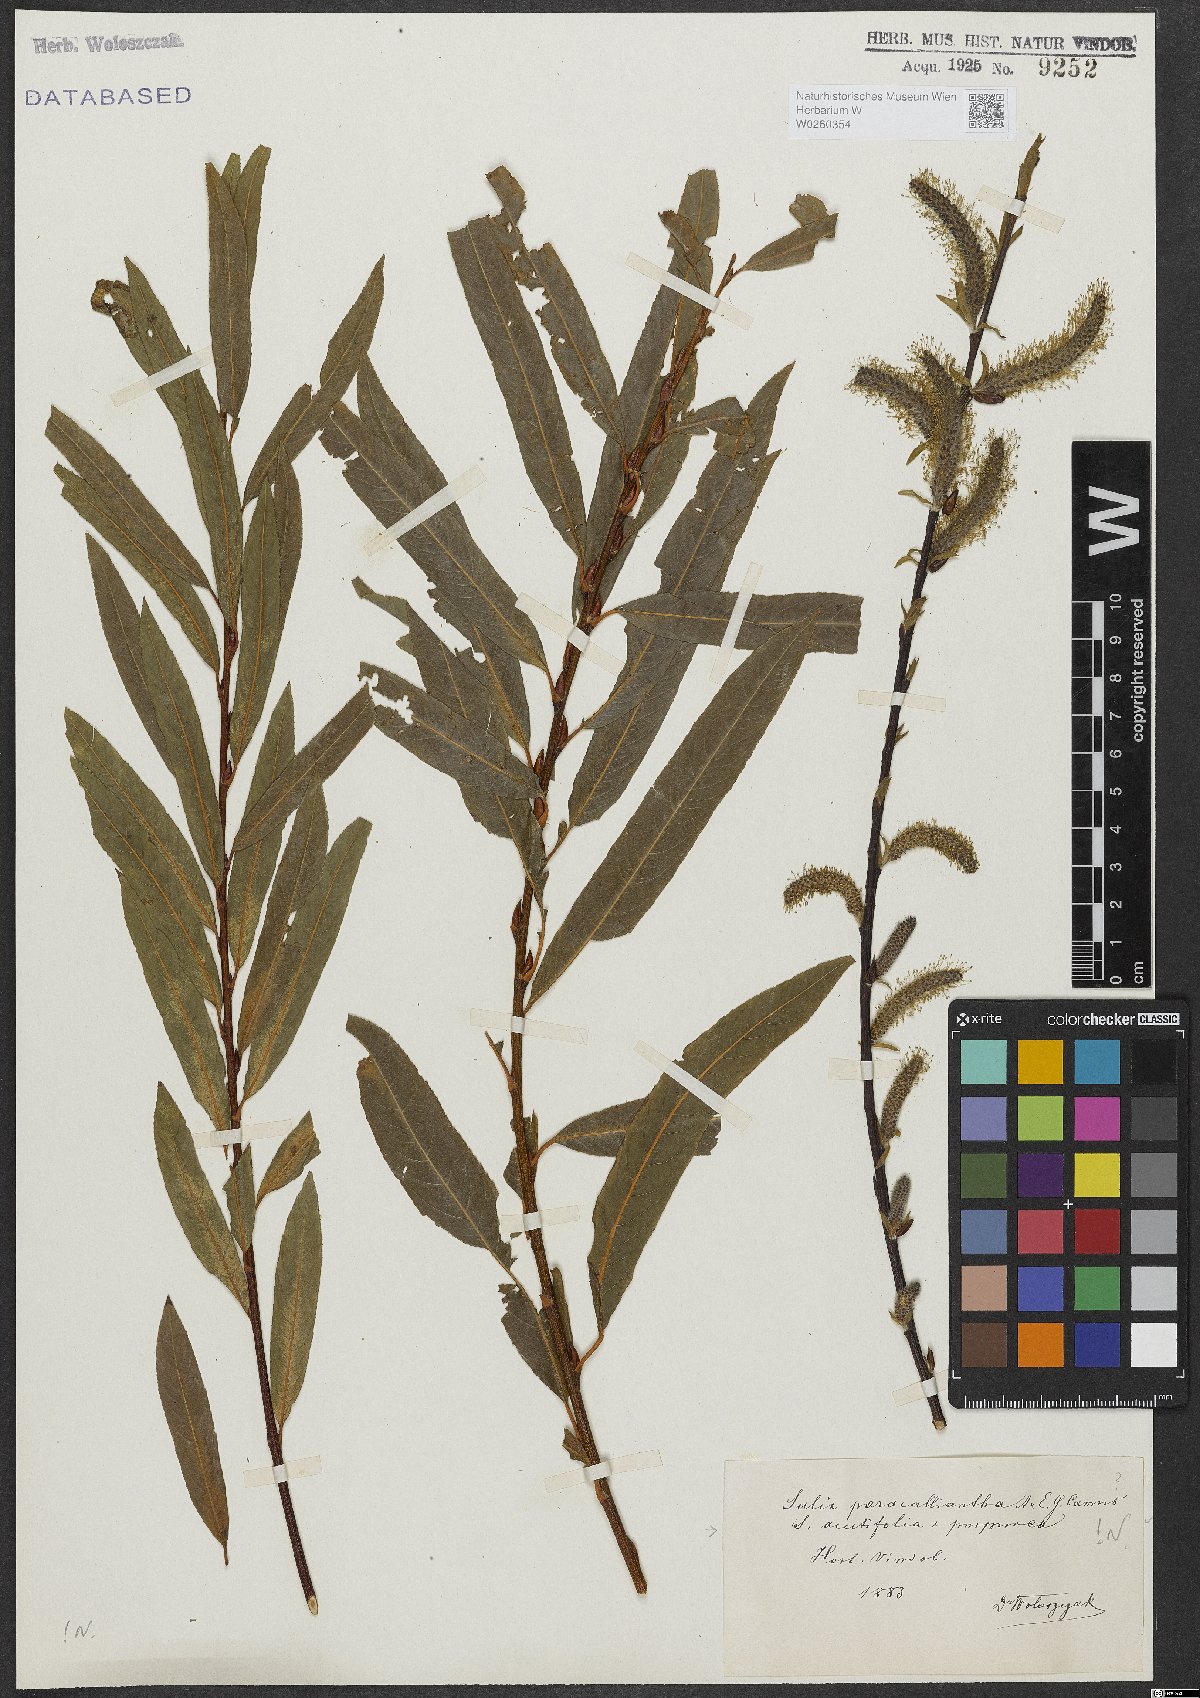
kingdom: Plantae
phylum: Tracheophyta
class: Magnoliopsida
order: Malpighiales
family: Salicaceae
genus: Salix
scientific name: Salix paracalliantha
